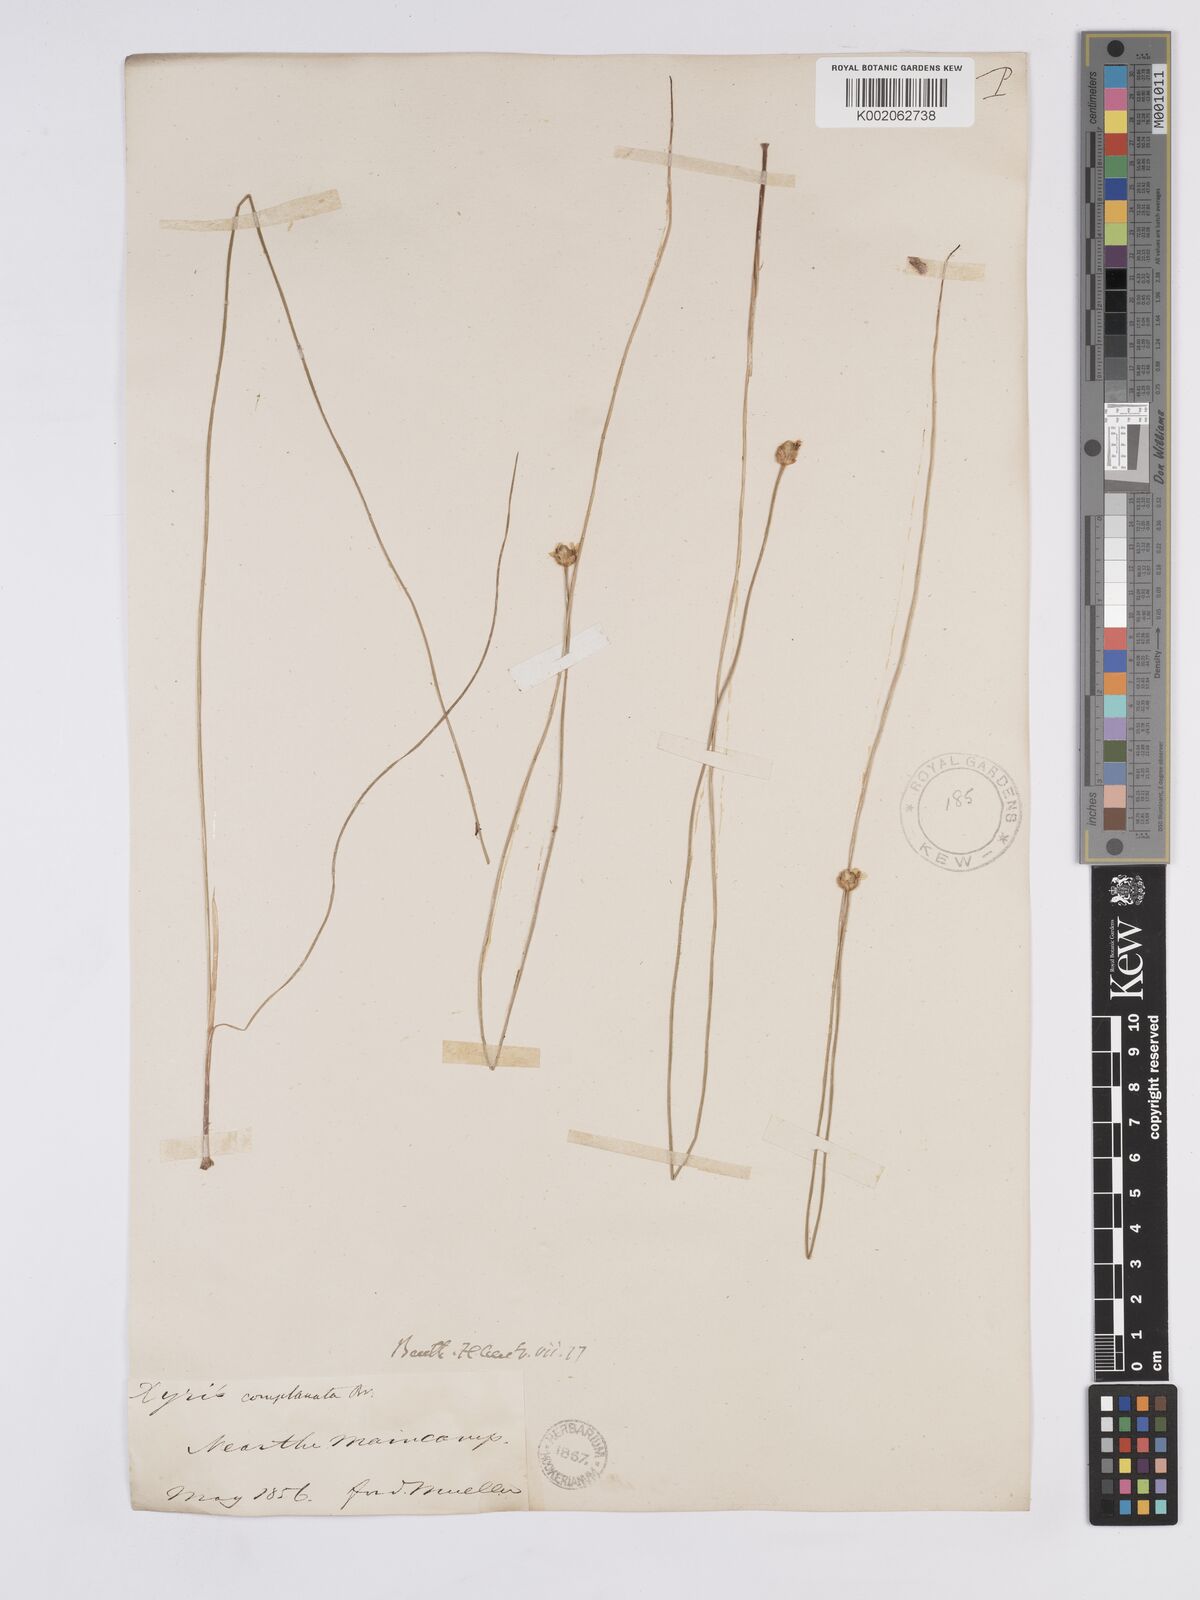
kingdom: Plantae
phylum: Tracheophyta
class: Liliopsida
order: Poales
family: Xyridaceae
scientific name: Xyridaceae
